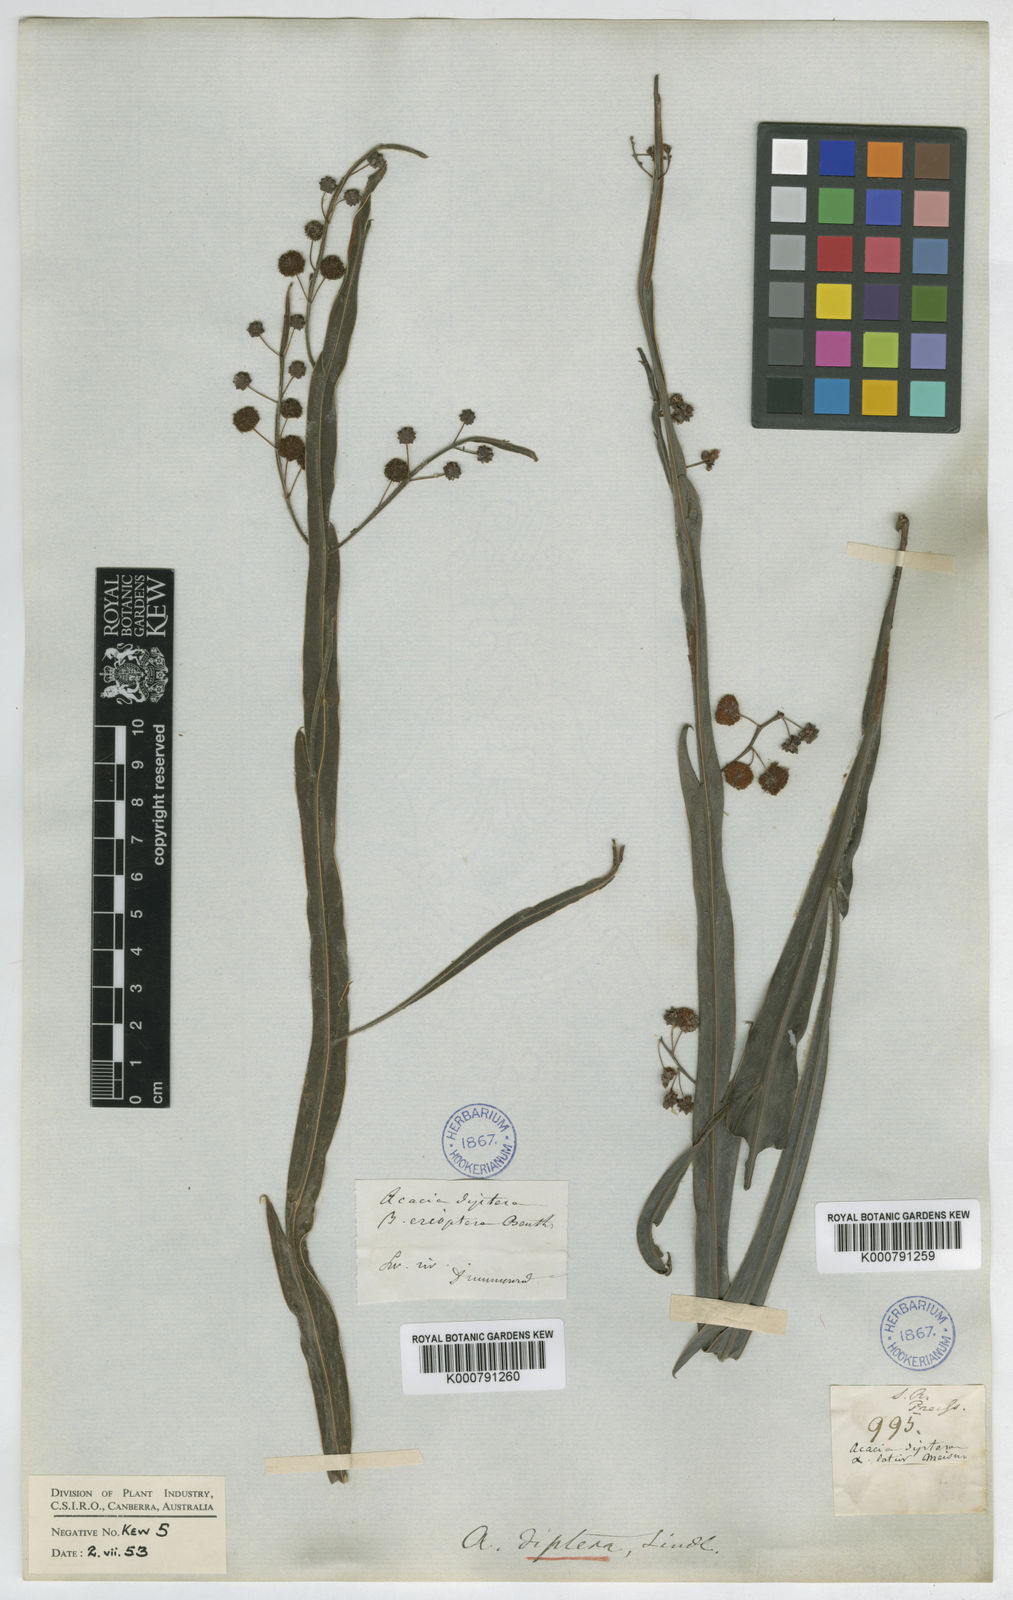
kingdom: Plantae
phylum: Tracheophyta
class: Magnoliopsida
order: Fabales
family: Fabaceae
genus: Acacia
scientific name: Acacia
